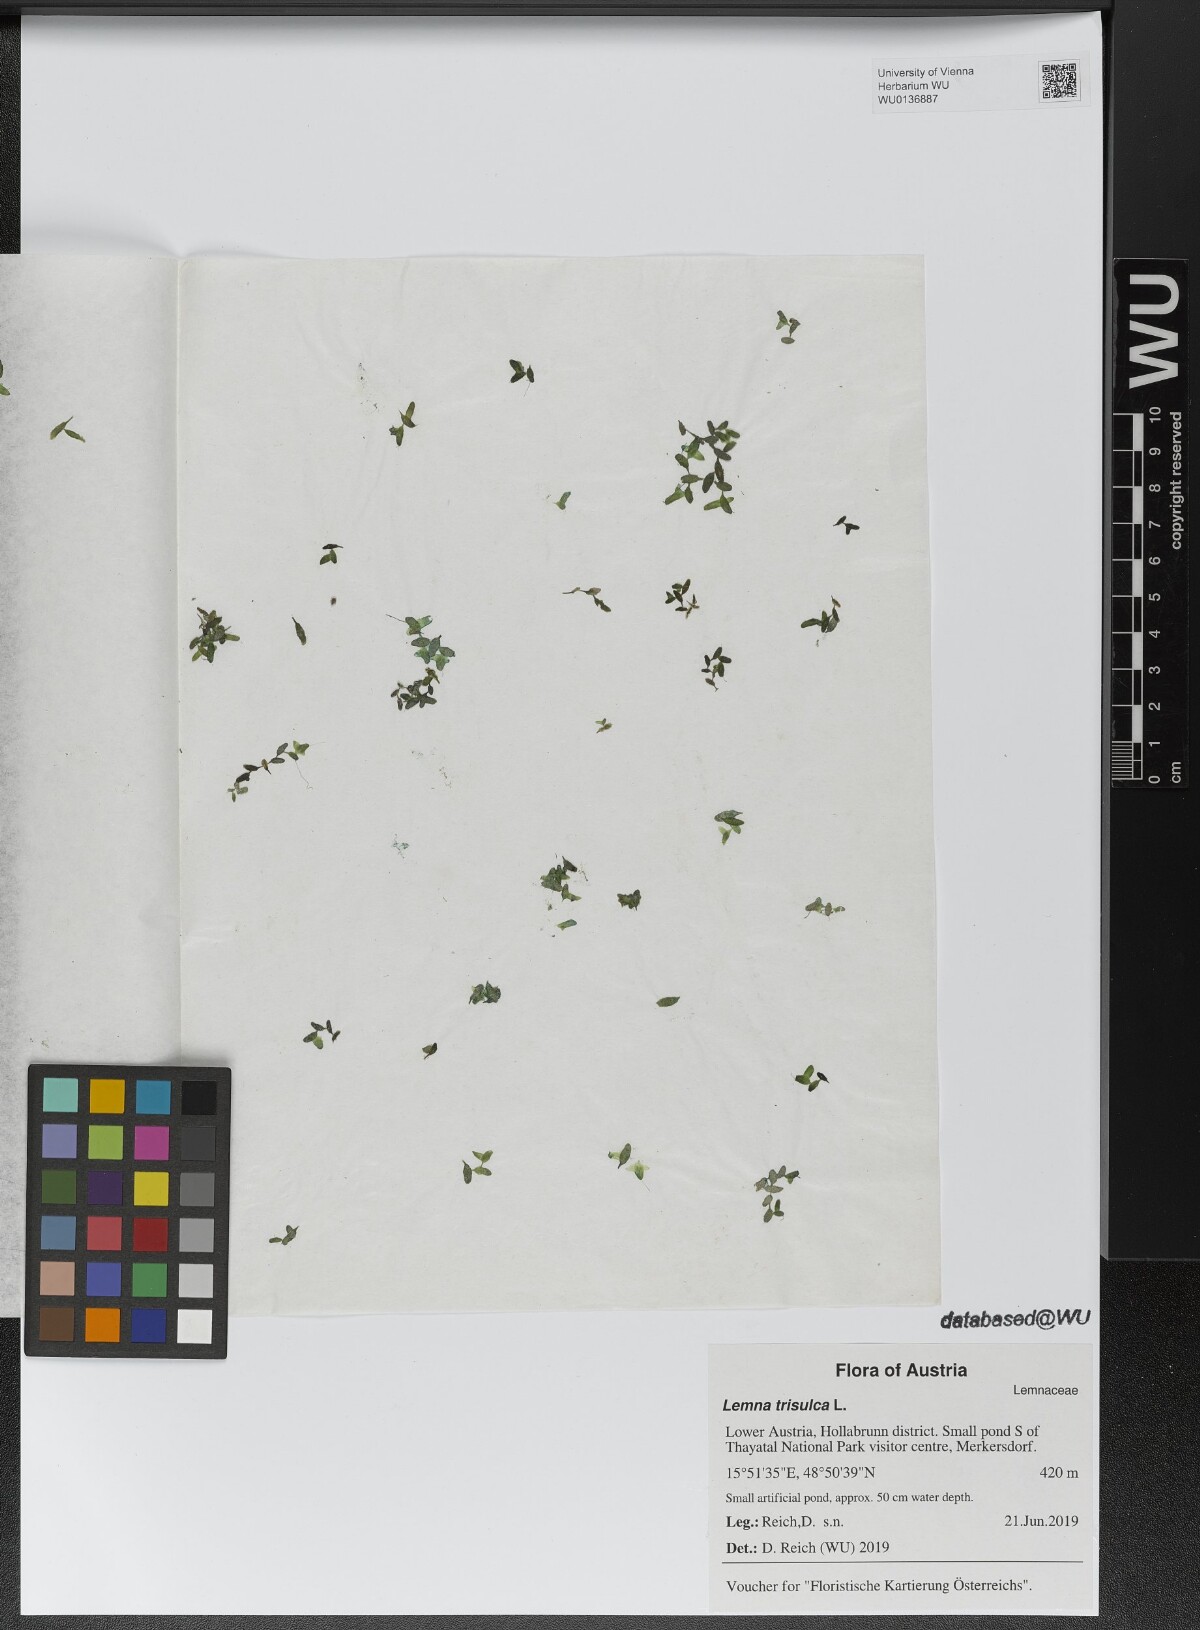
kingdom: Plantae
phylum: Tracheophyta
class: Liliopsida
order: Alismatales
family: Araceae
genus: Lemna
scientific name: Lemna trisulca
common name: Ivy-leaved duckweed
